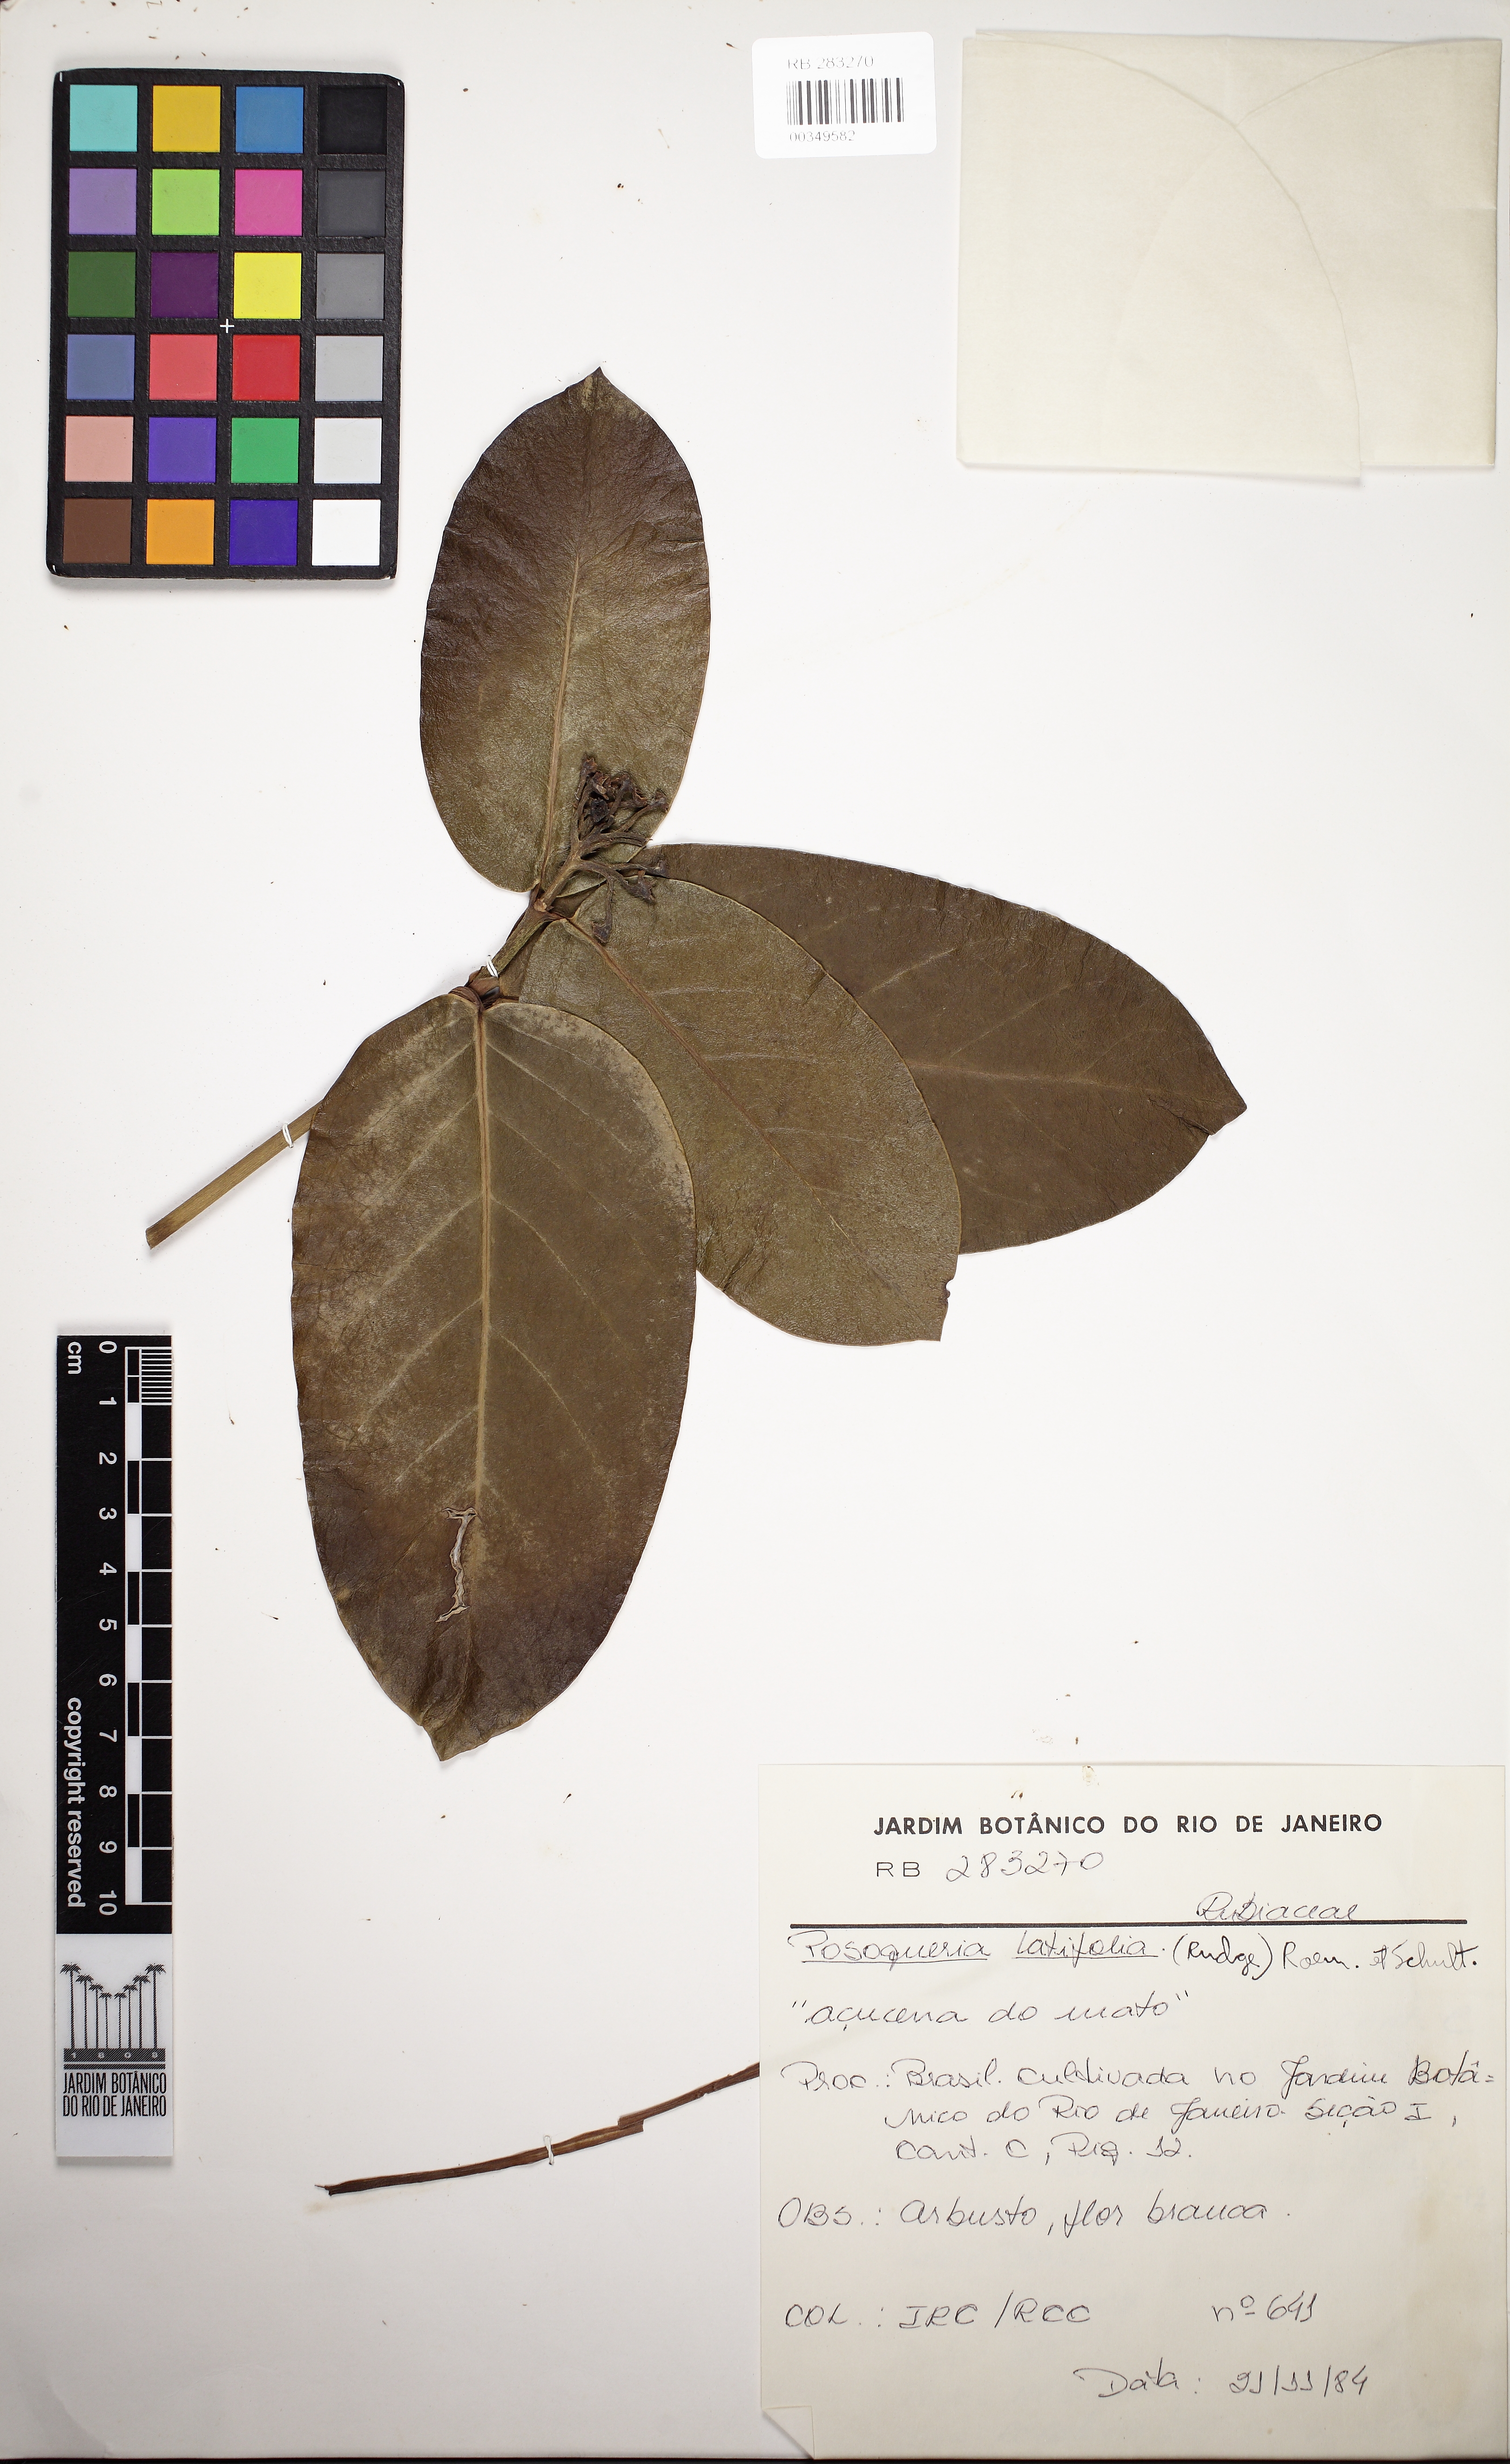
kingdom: Plantae
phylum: Tracheophyta
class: Magnoliopsida
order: Gentianales
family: Rubiaceae
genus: Posoqueria
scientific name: Posoqueria latifolia
